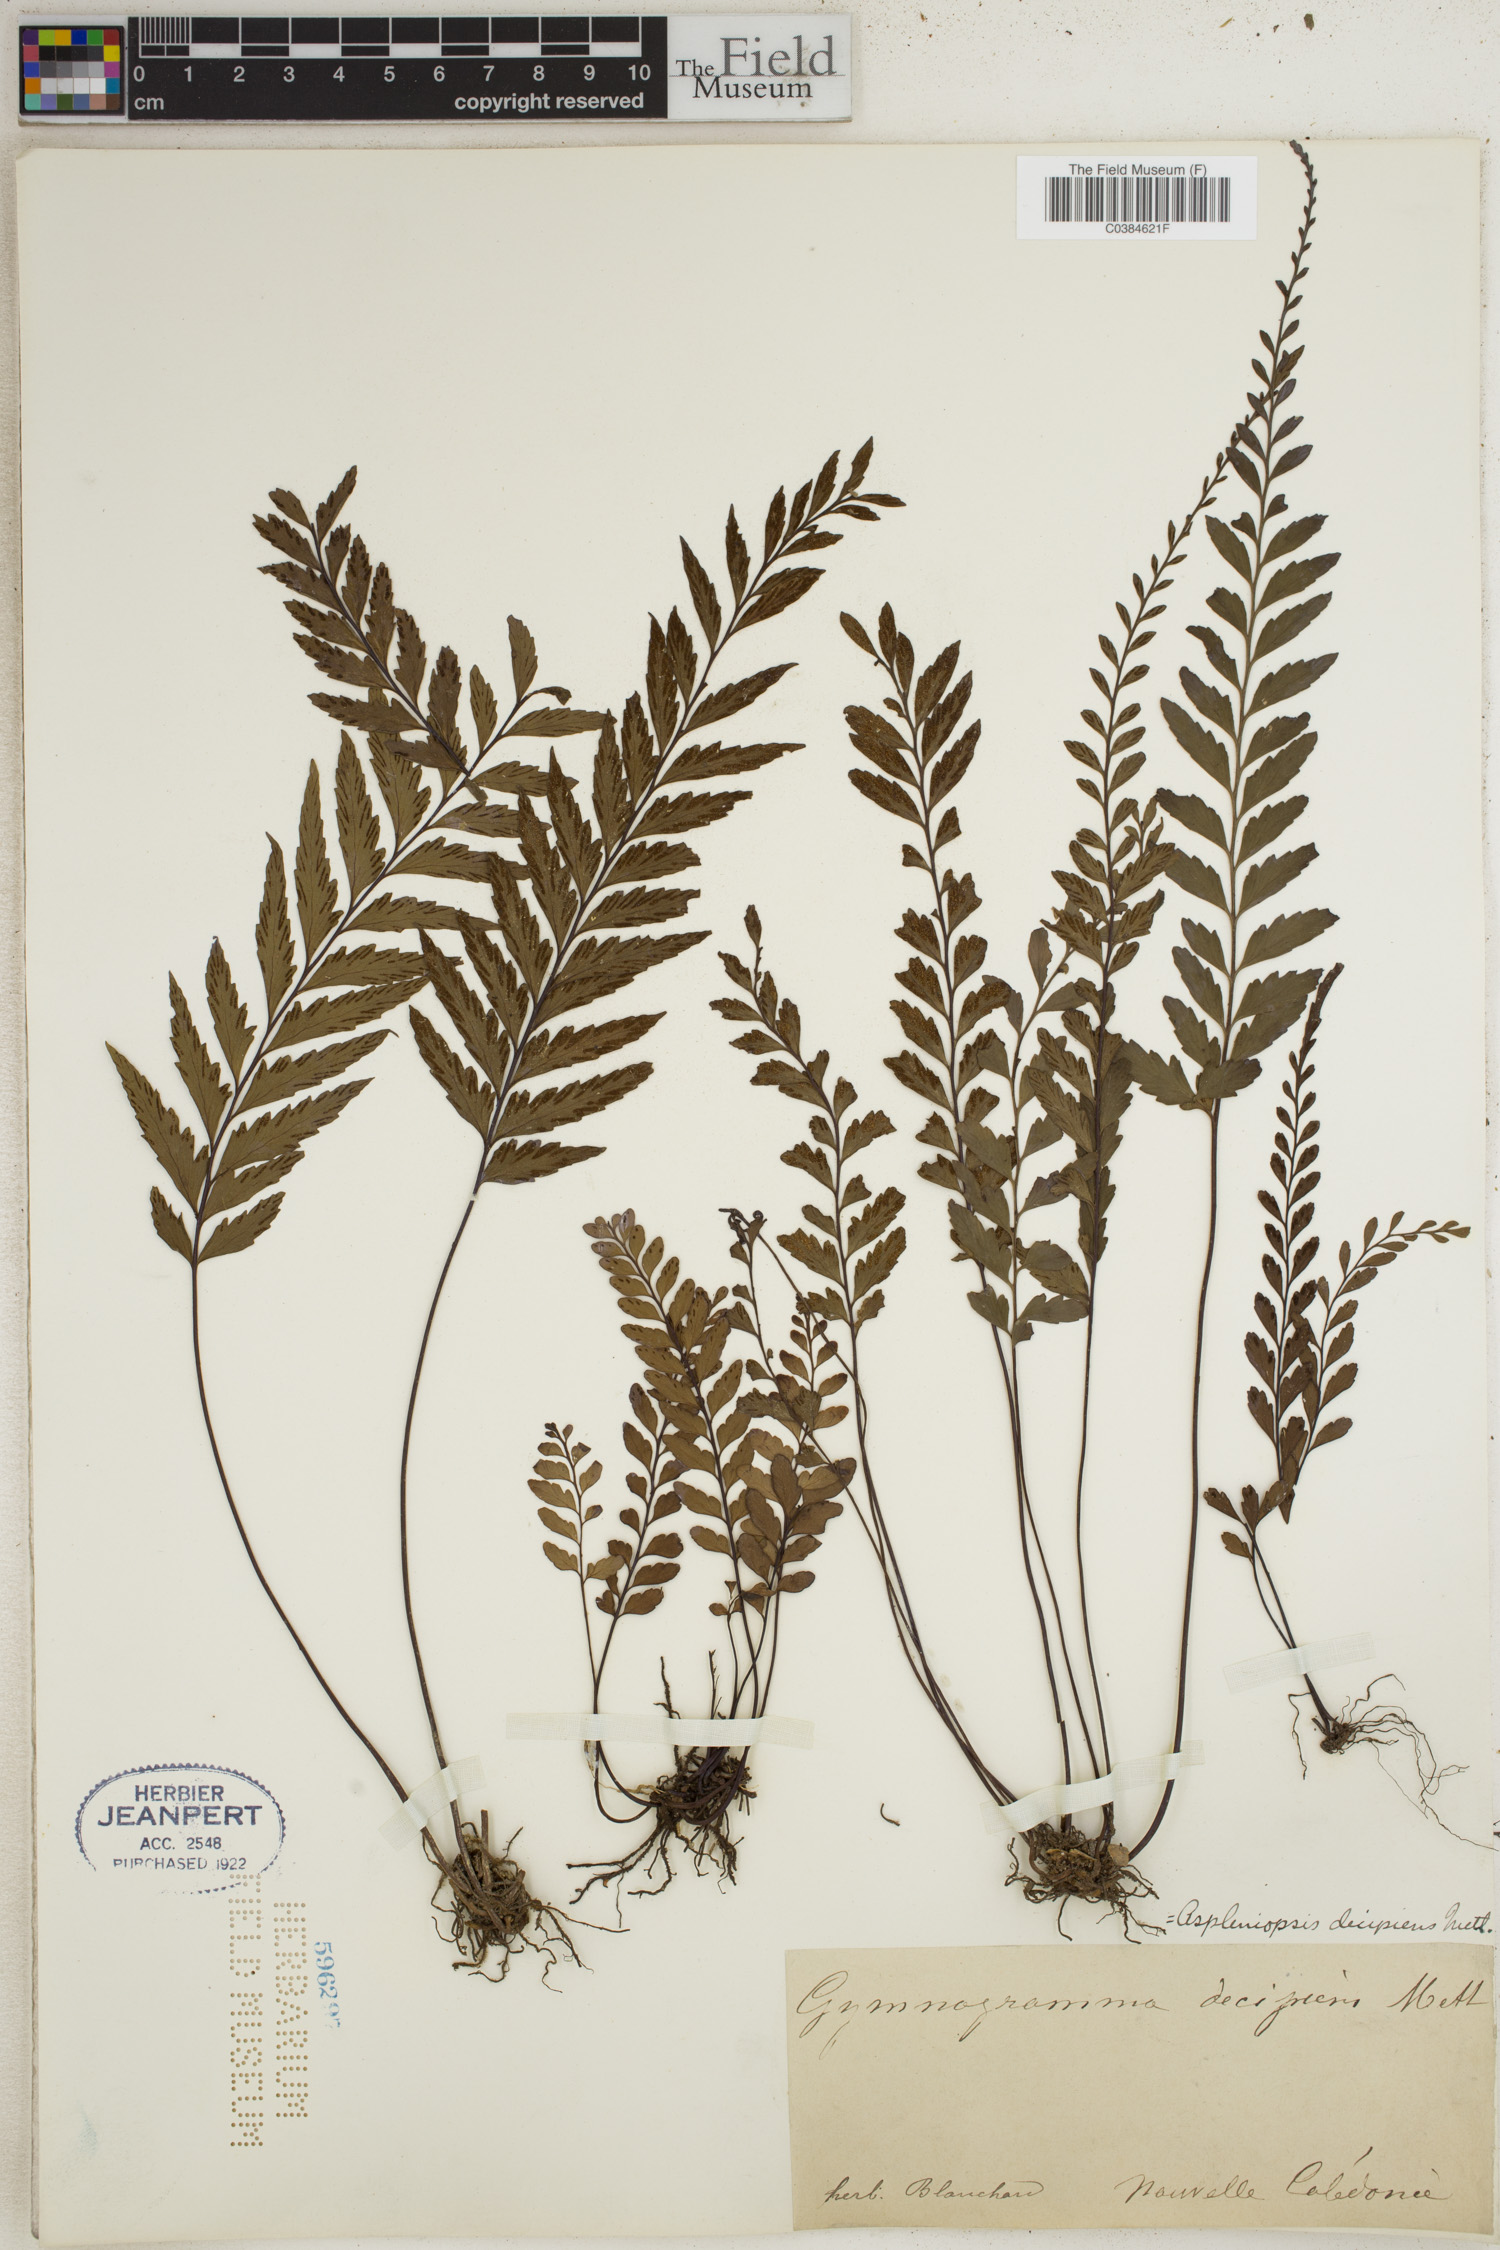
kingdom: Plantae
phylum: Tracheophyta
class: Polypodiopsida
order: Polypodiales
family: Pteridaceae
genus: Austrogramme
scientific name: Austrogramme decipiens
